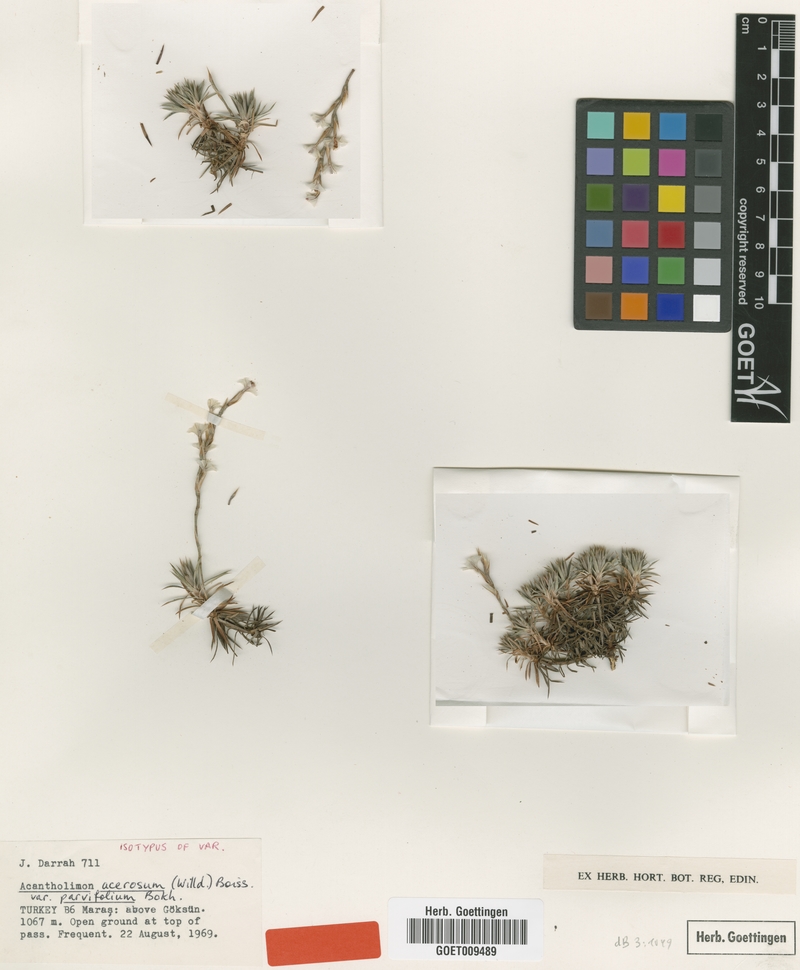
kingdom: Plantae
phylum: Tracheophyta
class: Magnoliopsida
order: Caryophyllales
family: Plumbaginaceae
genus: Acantholimon
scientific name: Acantholimon acerosum
